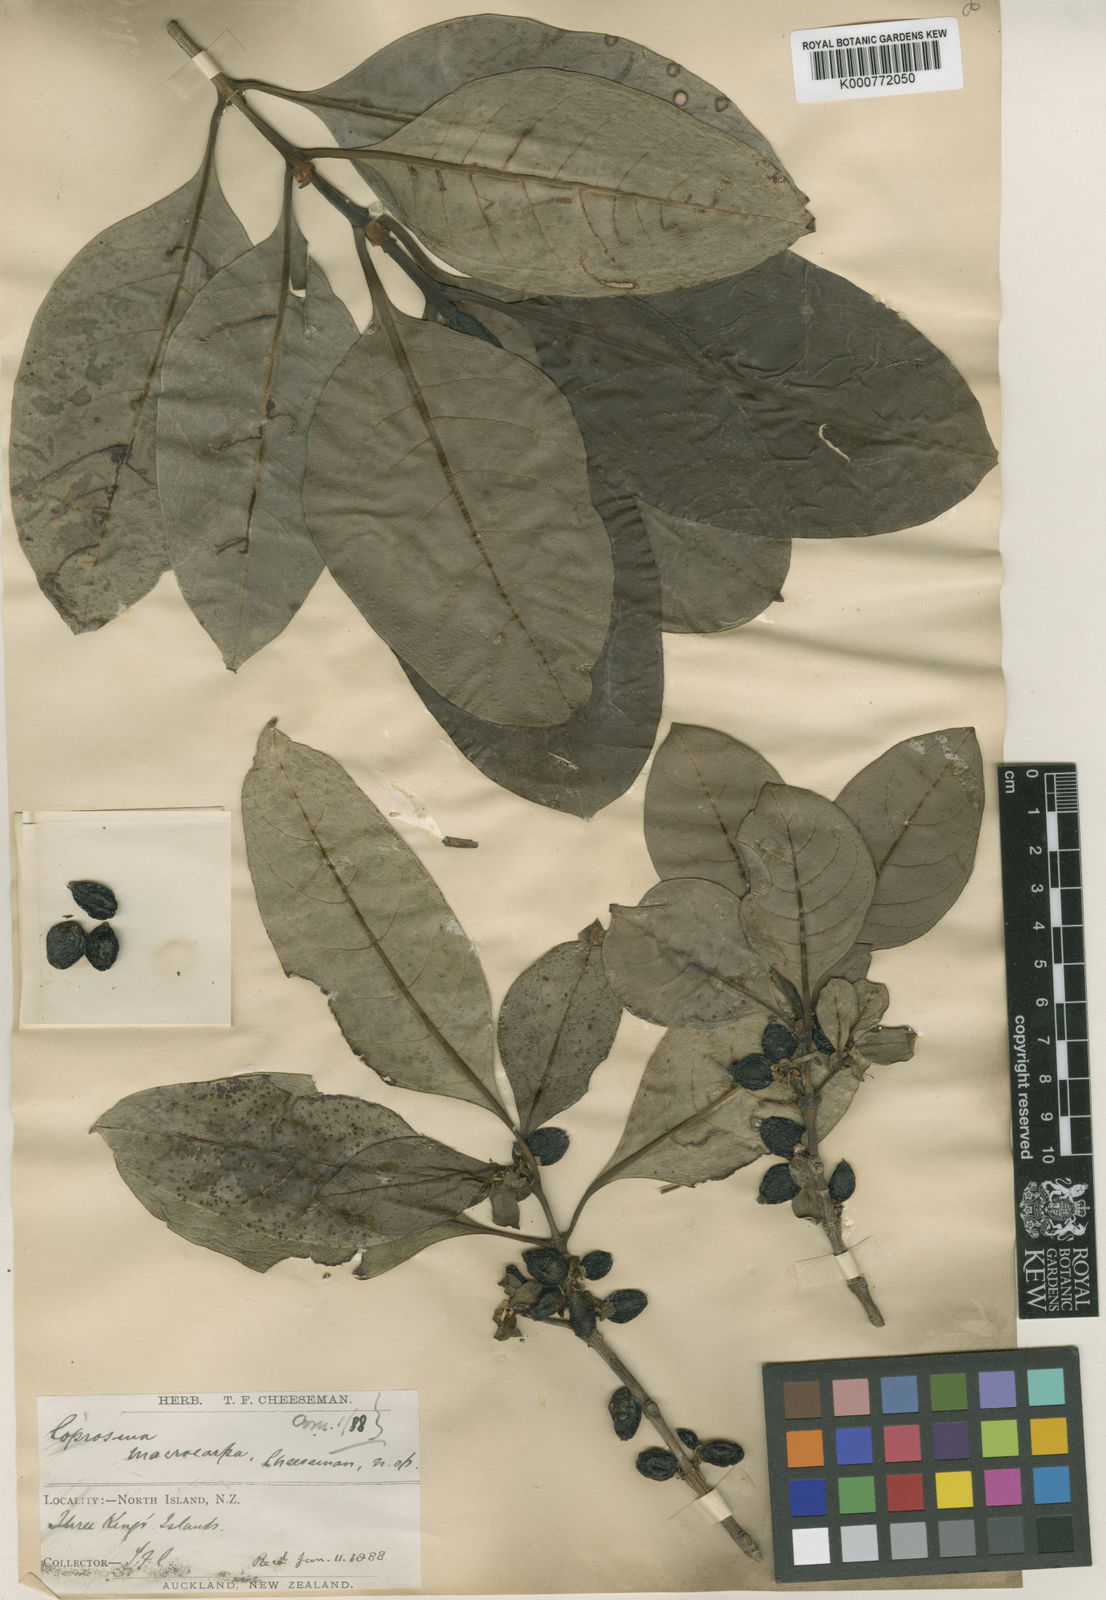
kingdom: Plantae
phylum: Tracheophyta
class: Magnoliopsida
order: Gentianales
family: Rubiaceae
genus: Coprosma
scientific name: Coprosma macrocarpa
